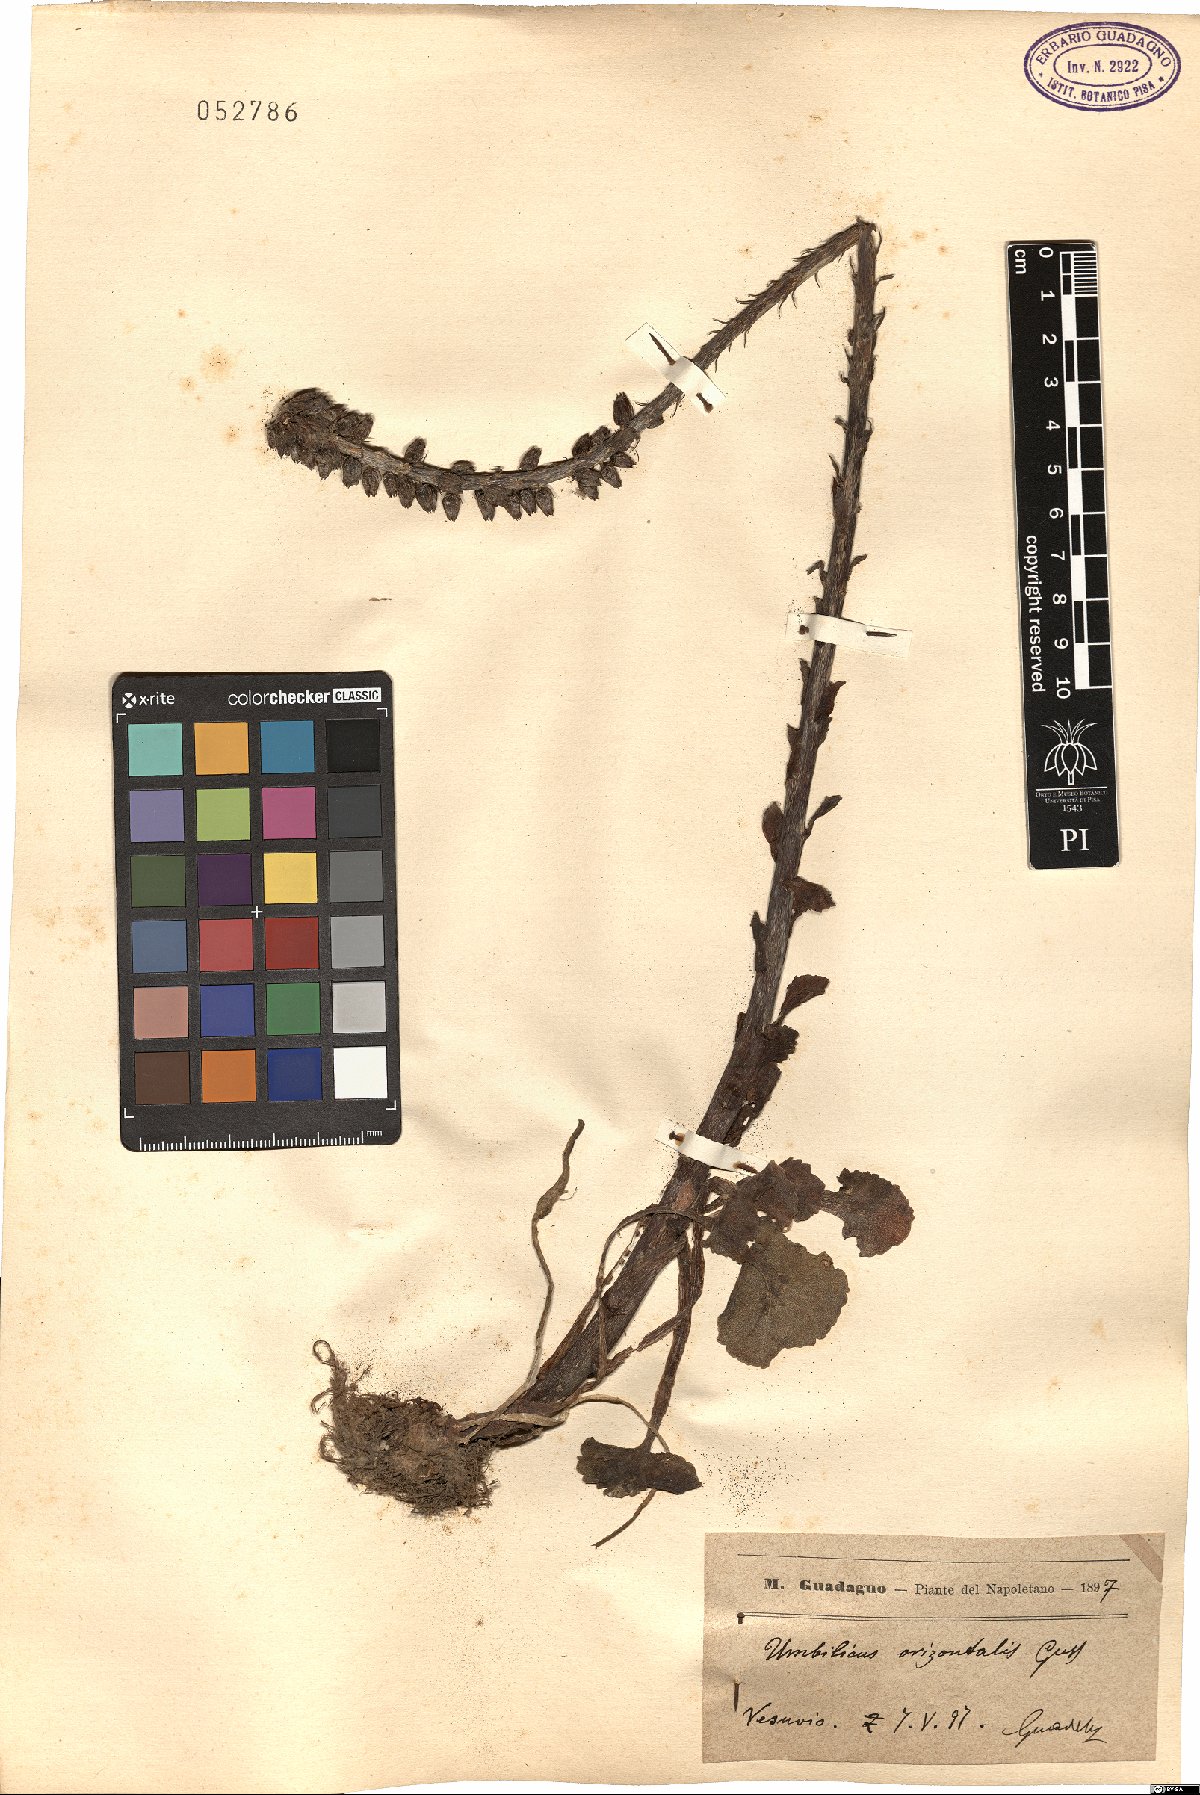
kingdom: Plantae
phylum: Tracheophyta
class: Magnoliopsida
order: Saxifragales
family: Crassulaceae
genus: Umbilicus
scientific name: Umbilicus horizontalis
